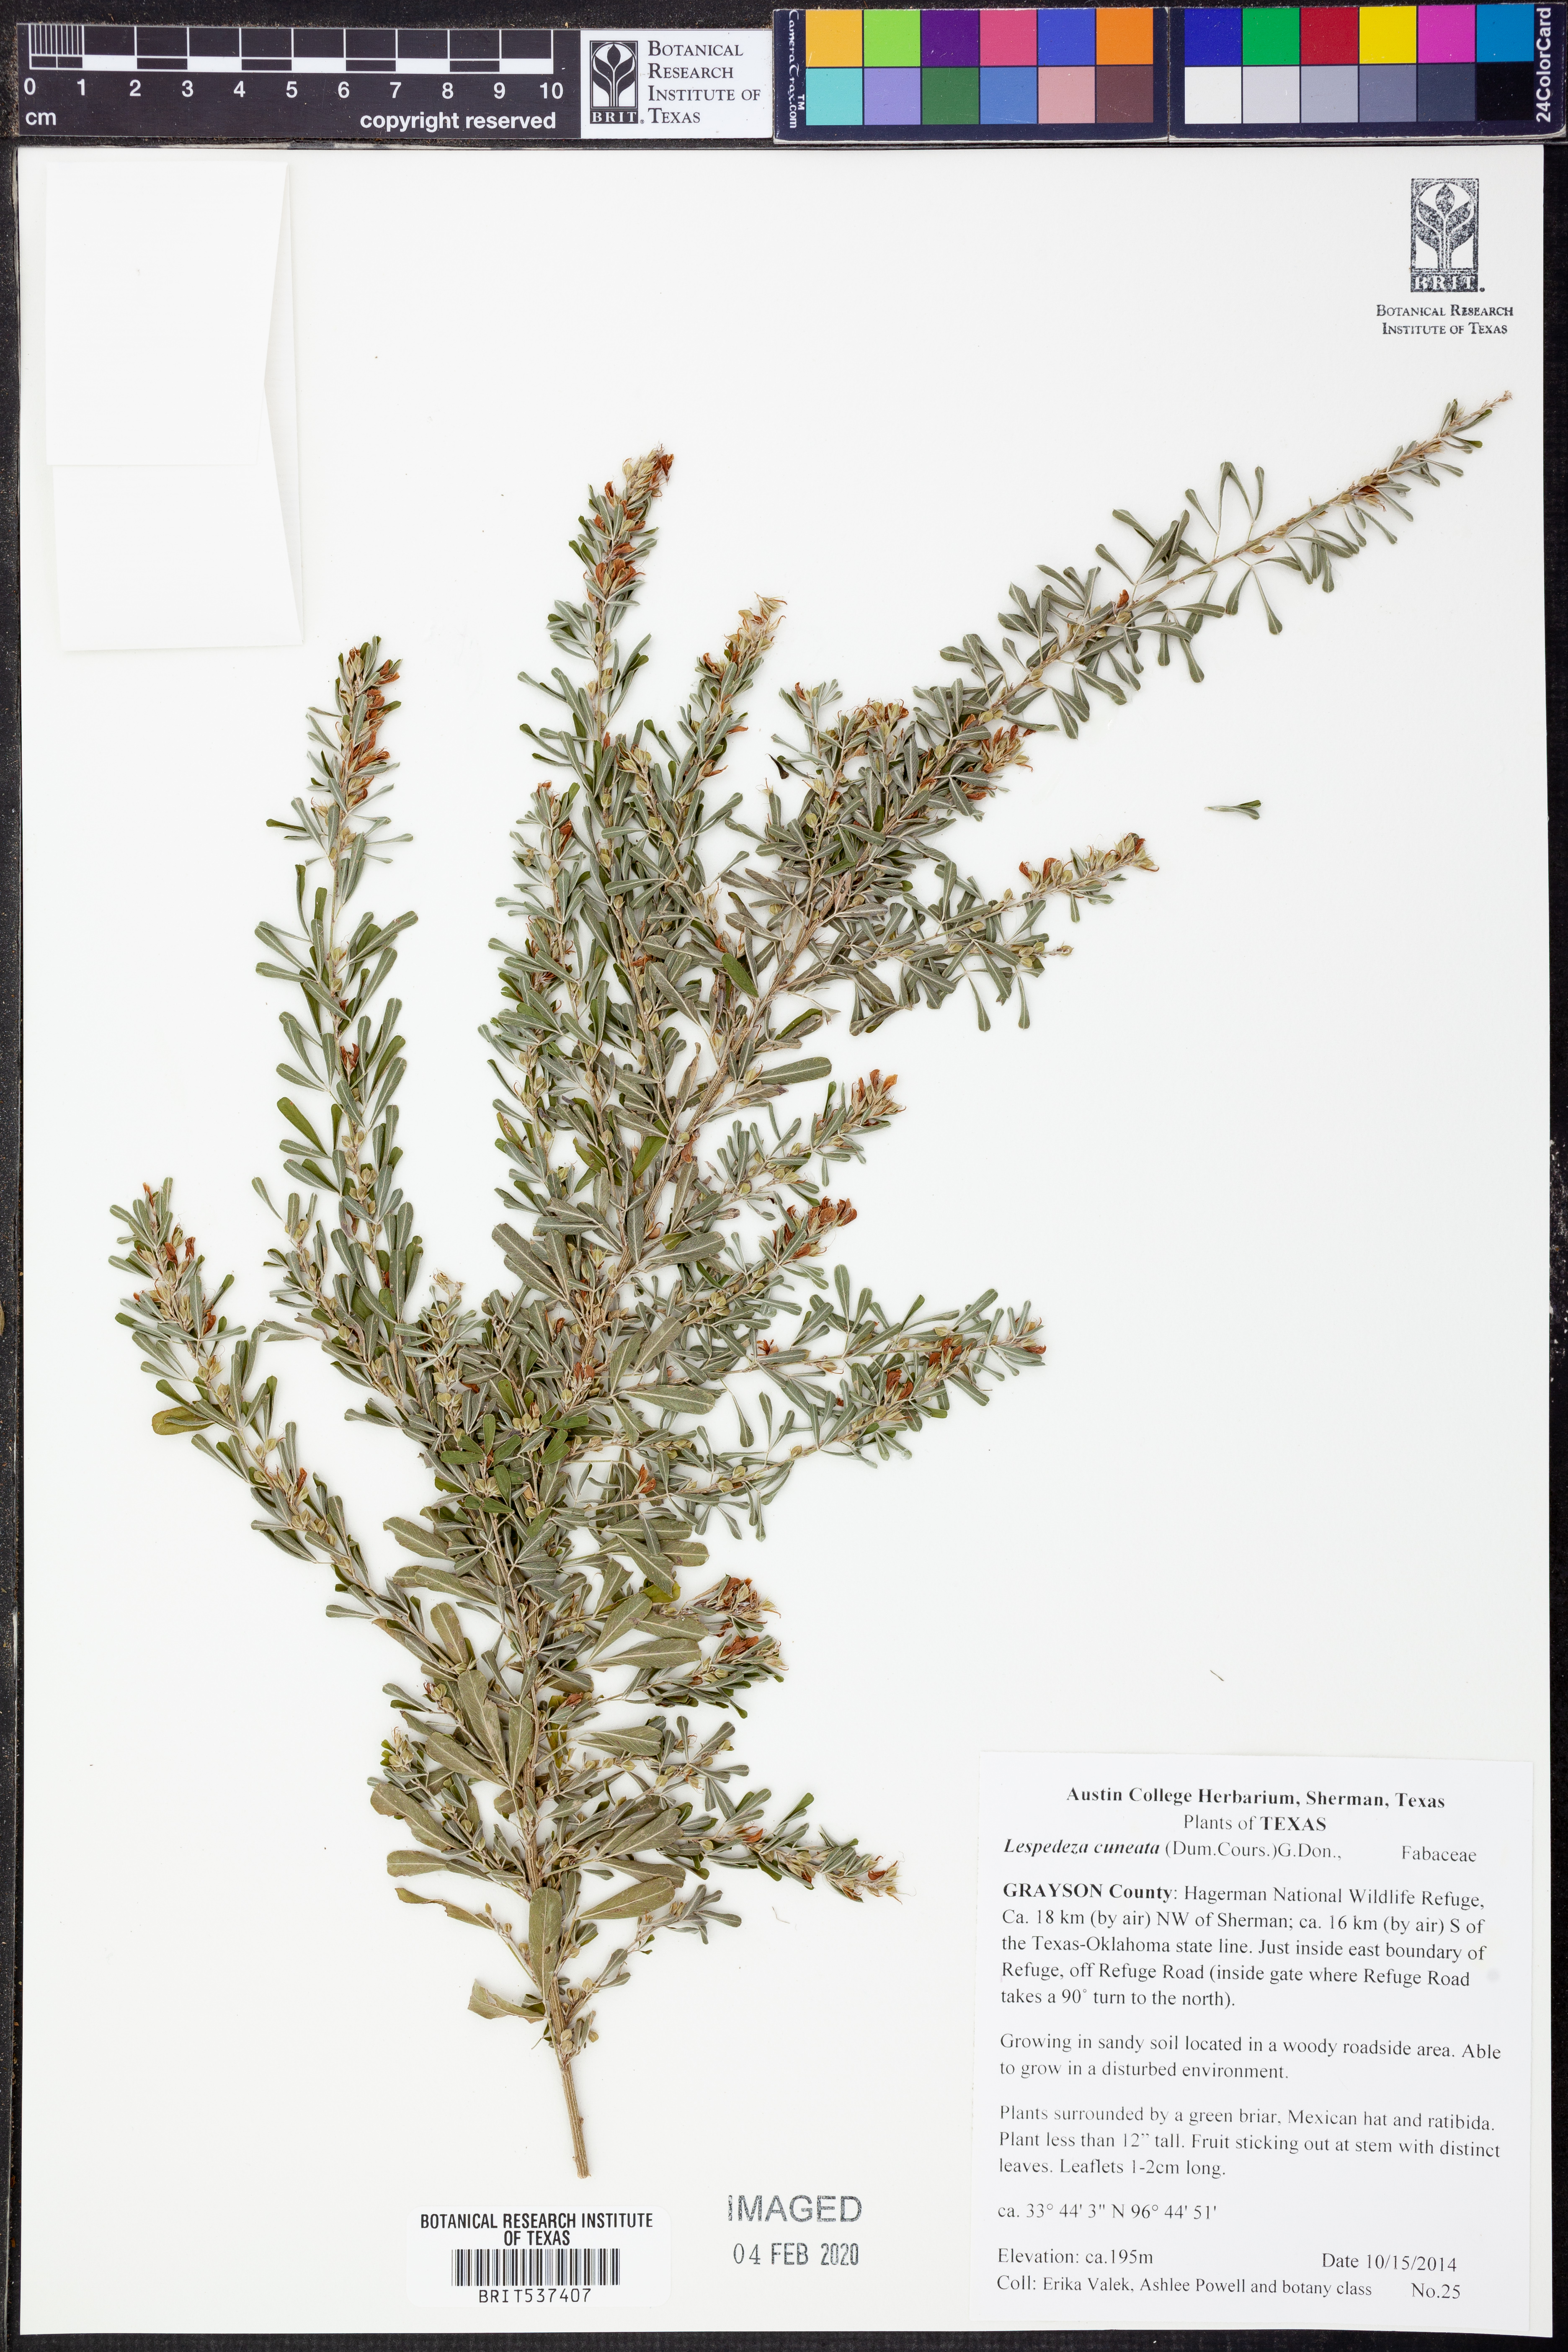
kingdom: Plantae
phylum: Tracheophyta
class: Magnoliopsida
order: Fabales
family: Fabaceae
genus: Lespedeza
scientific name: Lespedeza cuneata
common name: Chinese bush-clover
